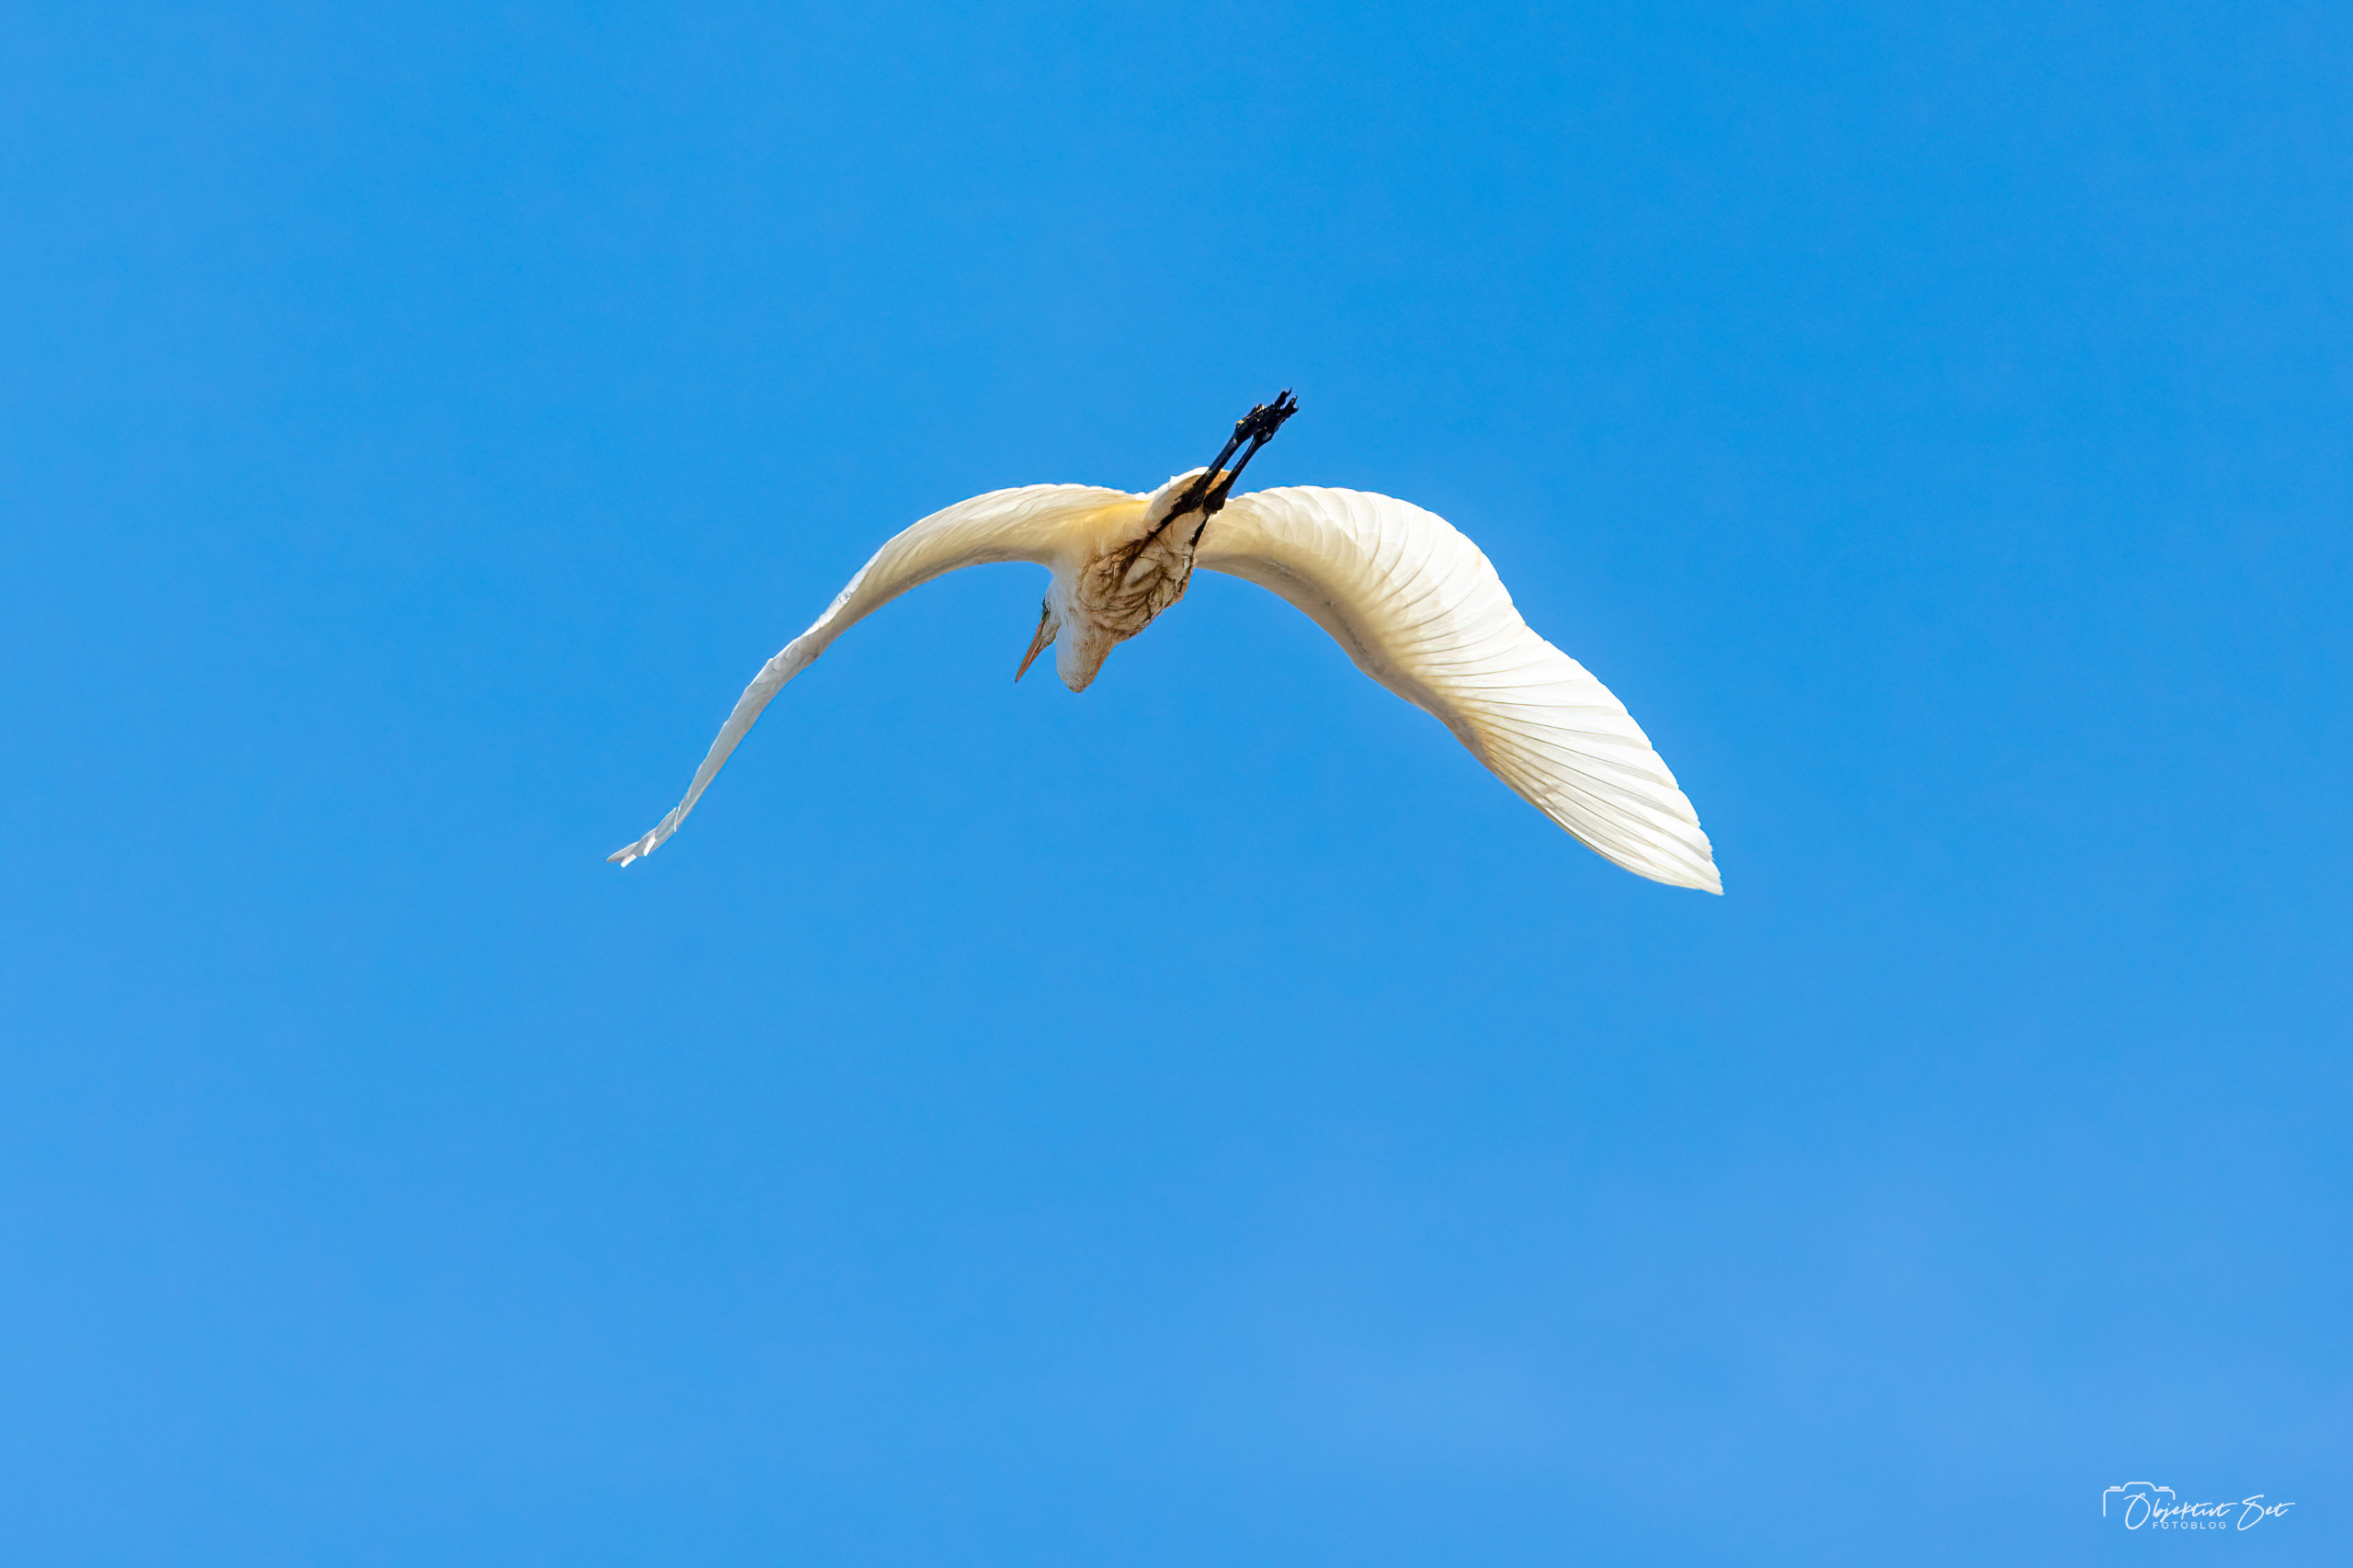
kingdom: Animalia
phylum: Chordata
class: Aves
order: Pelecaniformes
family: Ardeidae
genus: Ardea
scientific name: Ardea alba
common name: Sølvhejre
